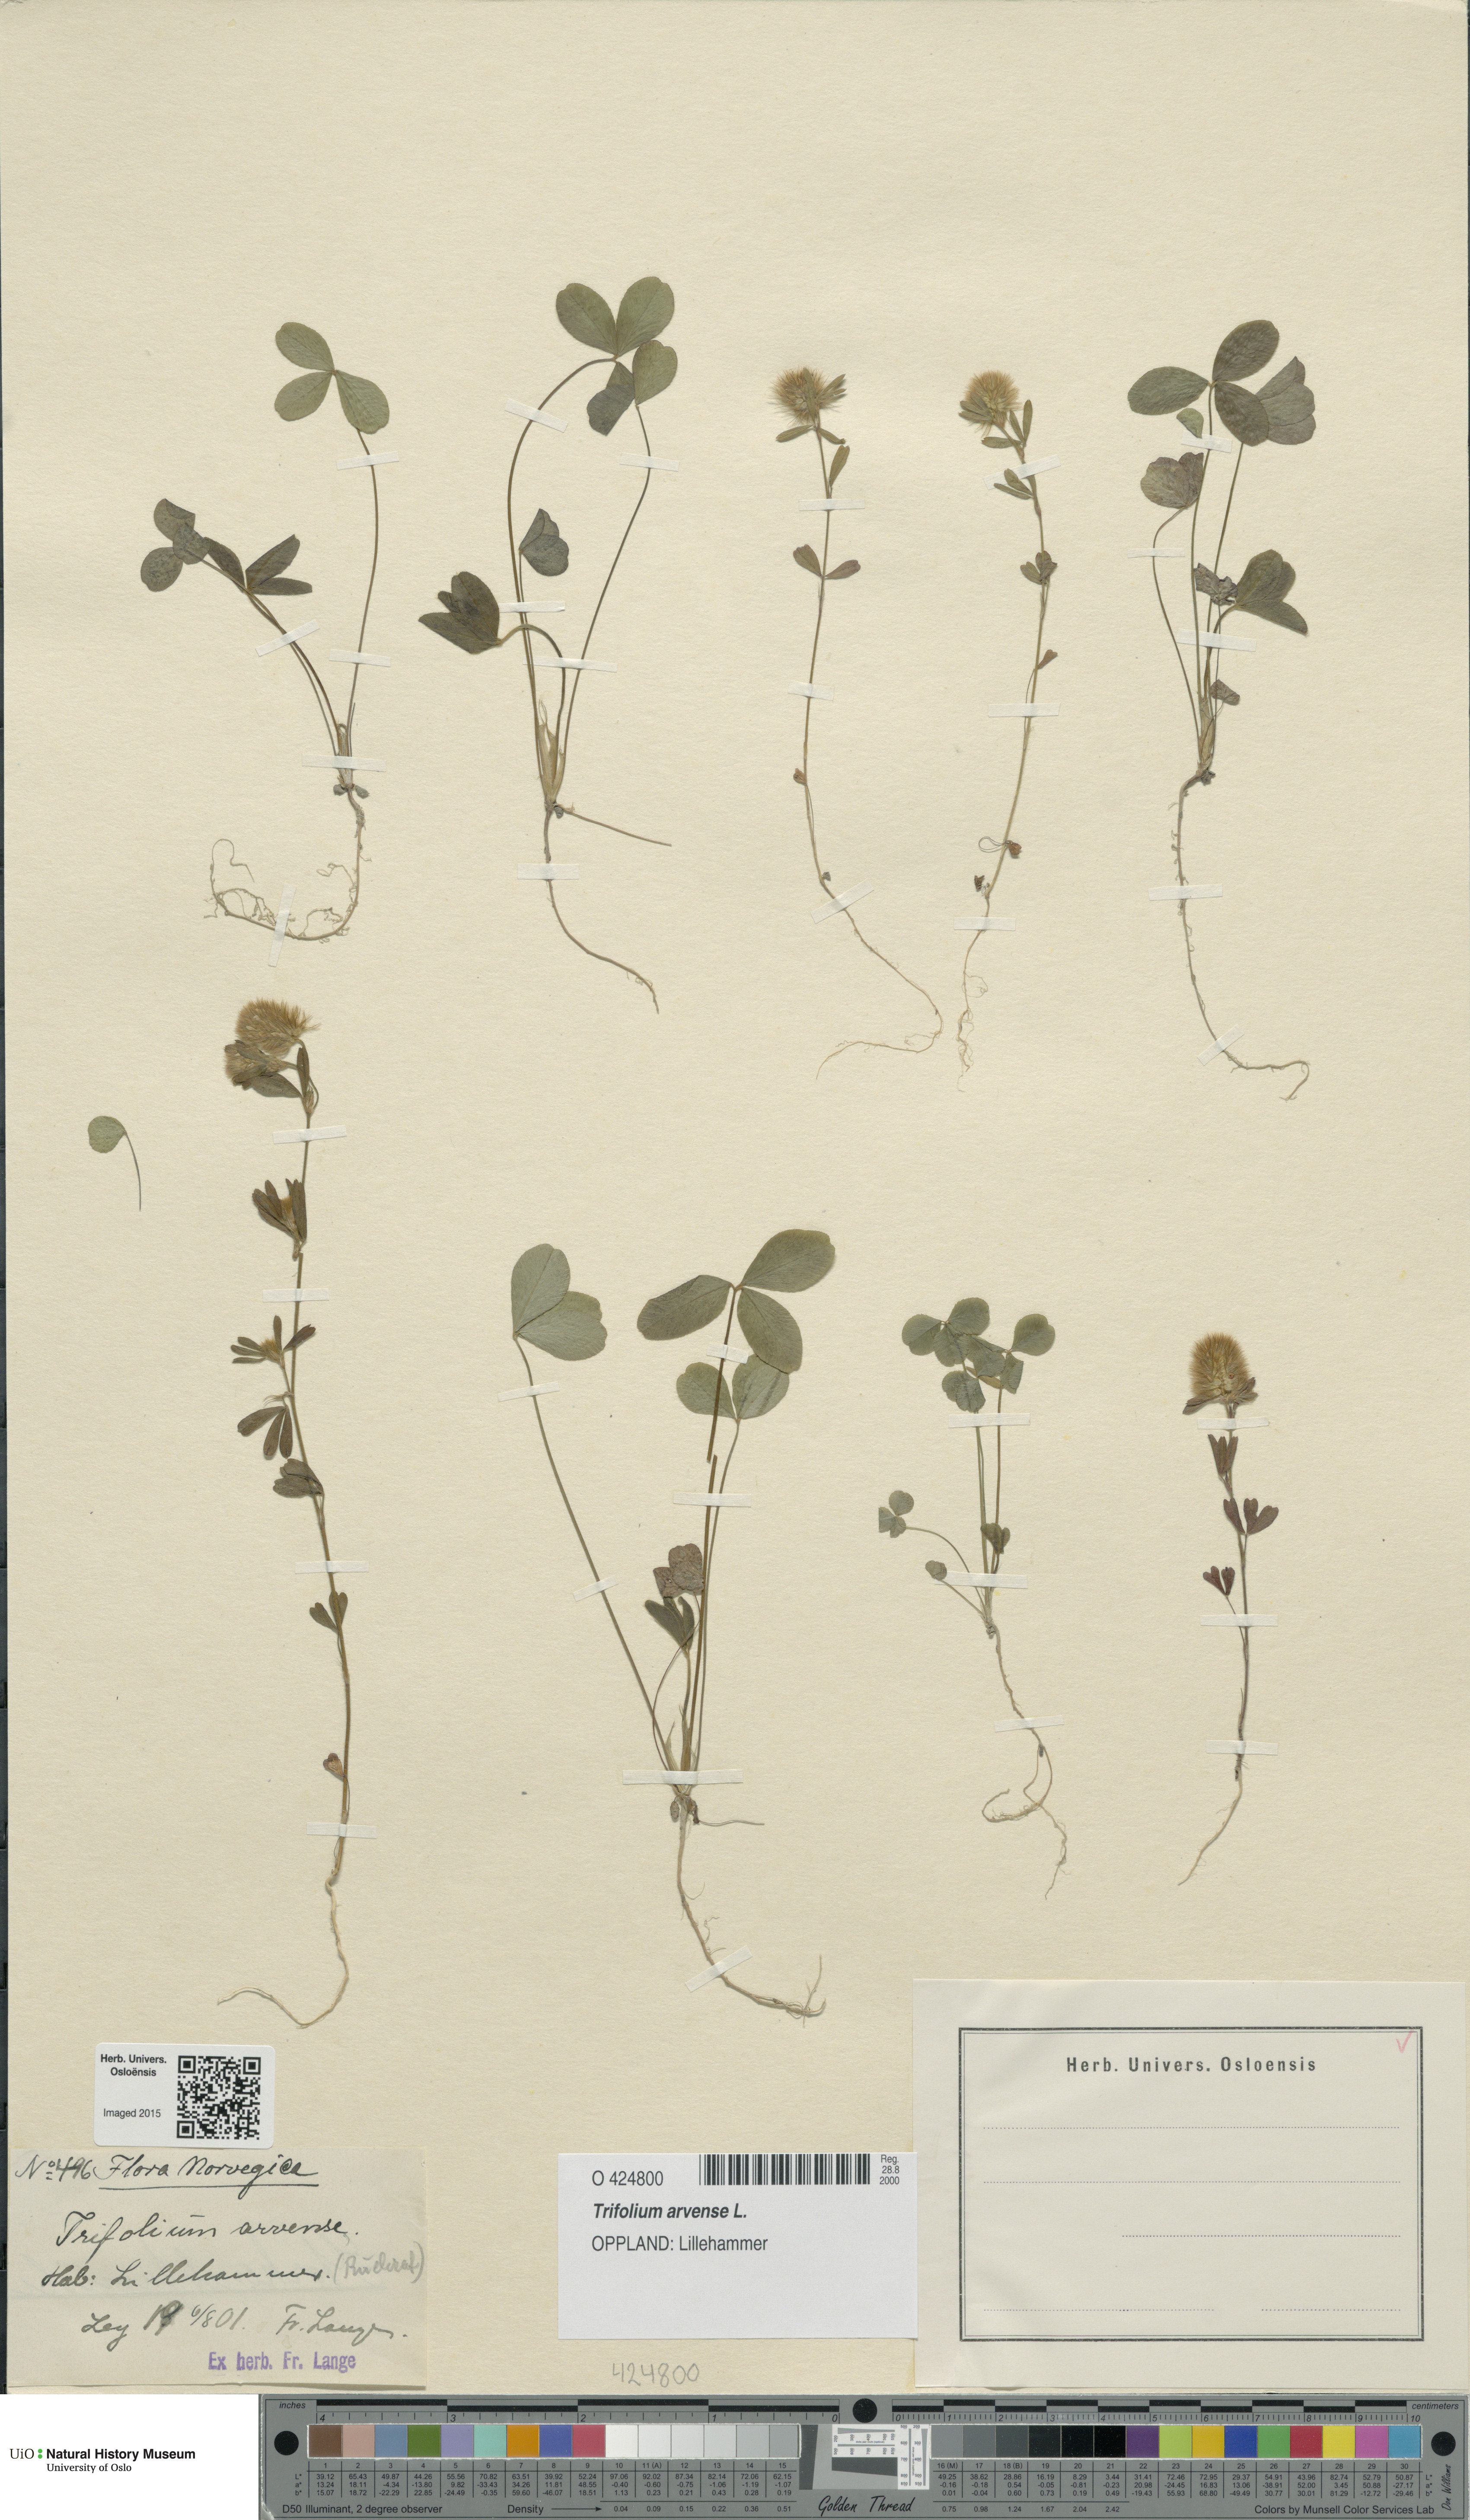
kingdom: Plantae
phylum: Tracheophyta
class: Magnoliopsida
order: Fabales
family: Fabaceae
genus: Trifolium
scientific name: Trifolium arvense
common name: Hare's-foot clover
